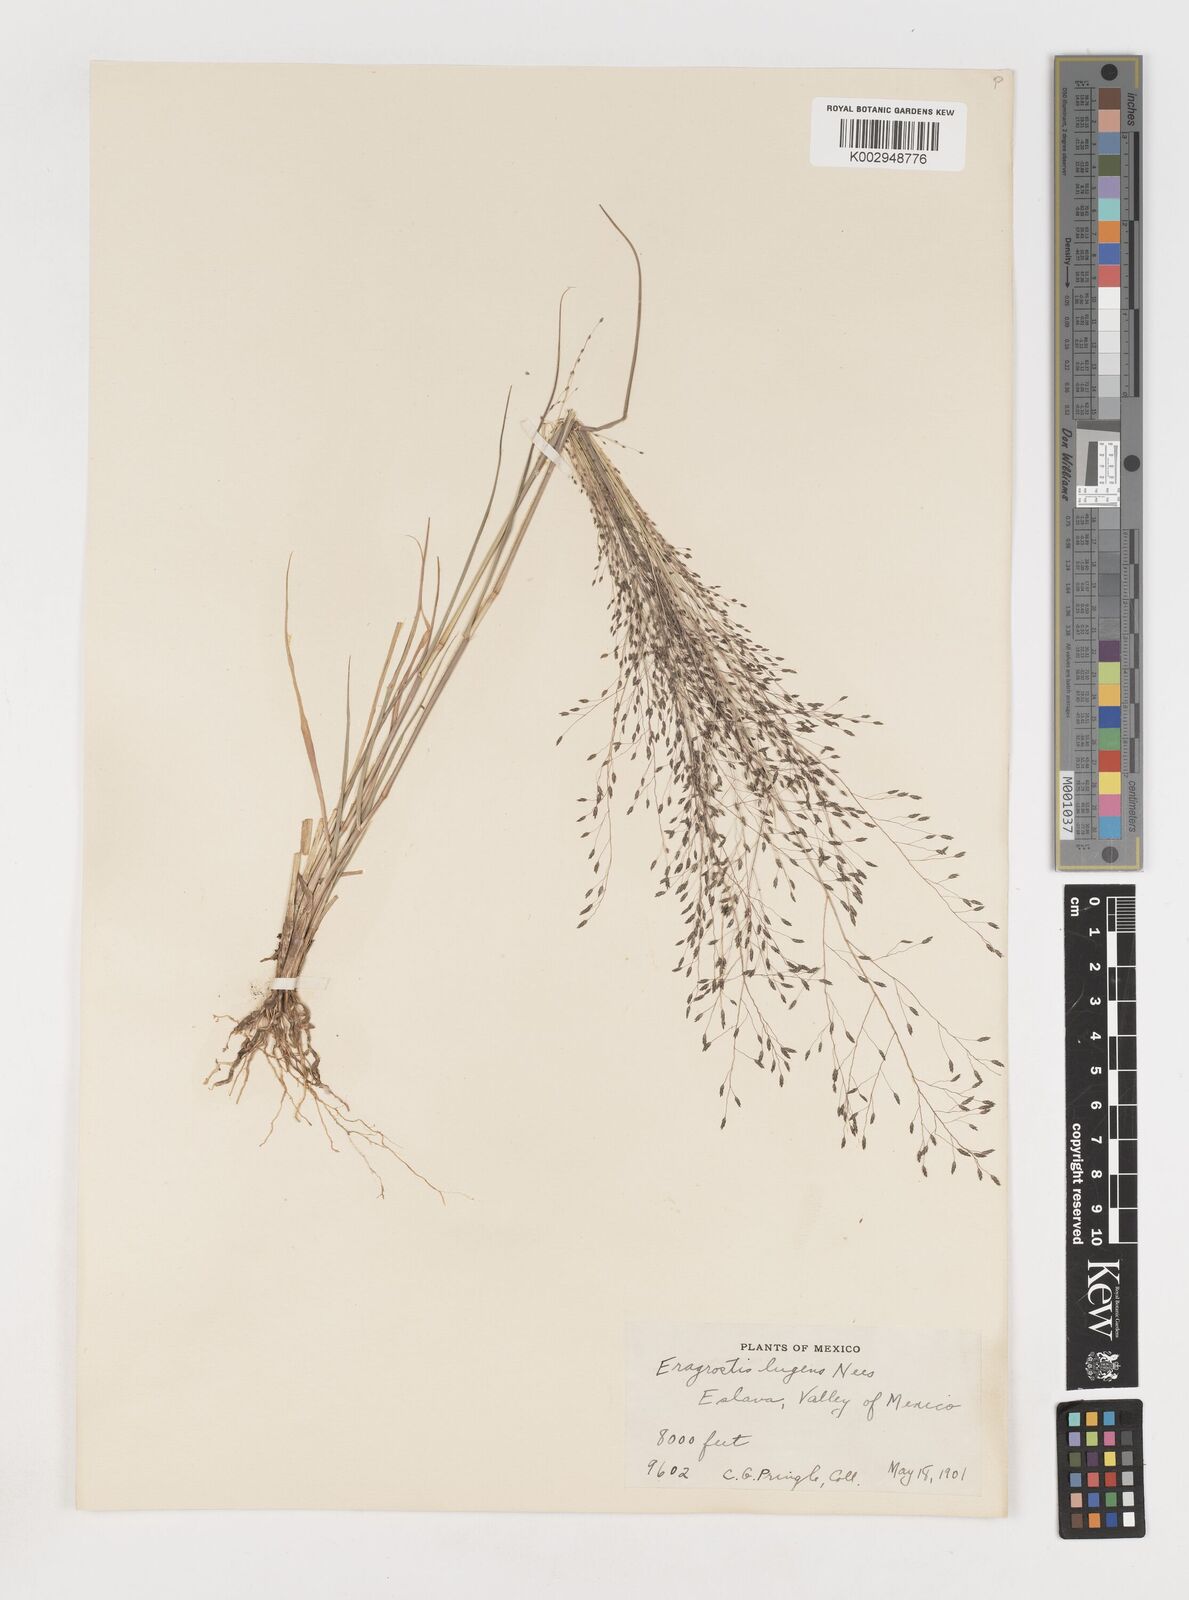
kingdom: Plantae
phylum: Tracheophyta
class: Liliopsida
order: Poales
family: Poaceae
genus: Eragrostis
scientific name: Eragrostis
